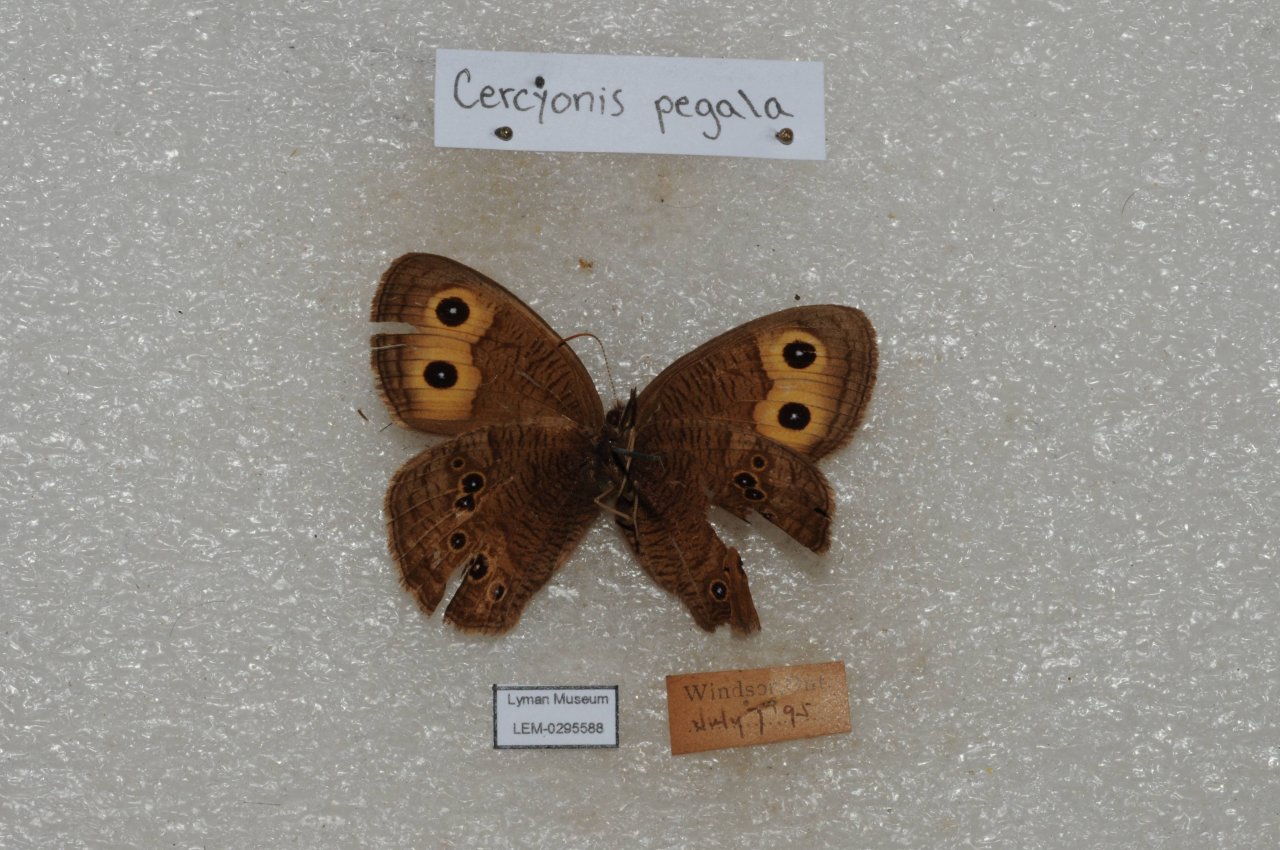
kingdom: Animalia
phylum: Arthropoda
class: Insecta
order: Lepidoptera
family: Nymphalidae
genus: Cercyonis
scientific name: Cercyonis pegala
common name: Common Wood-Nymph
